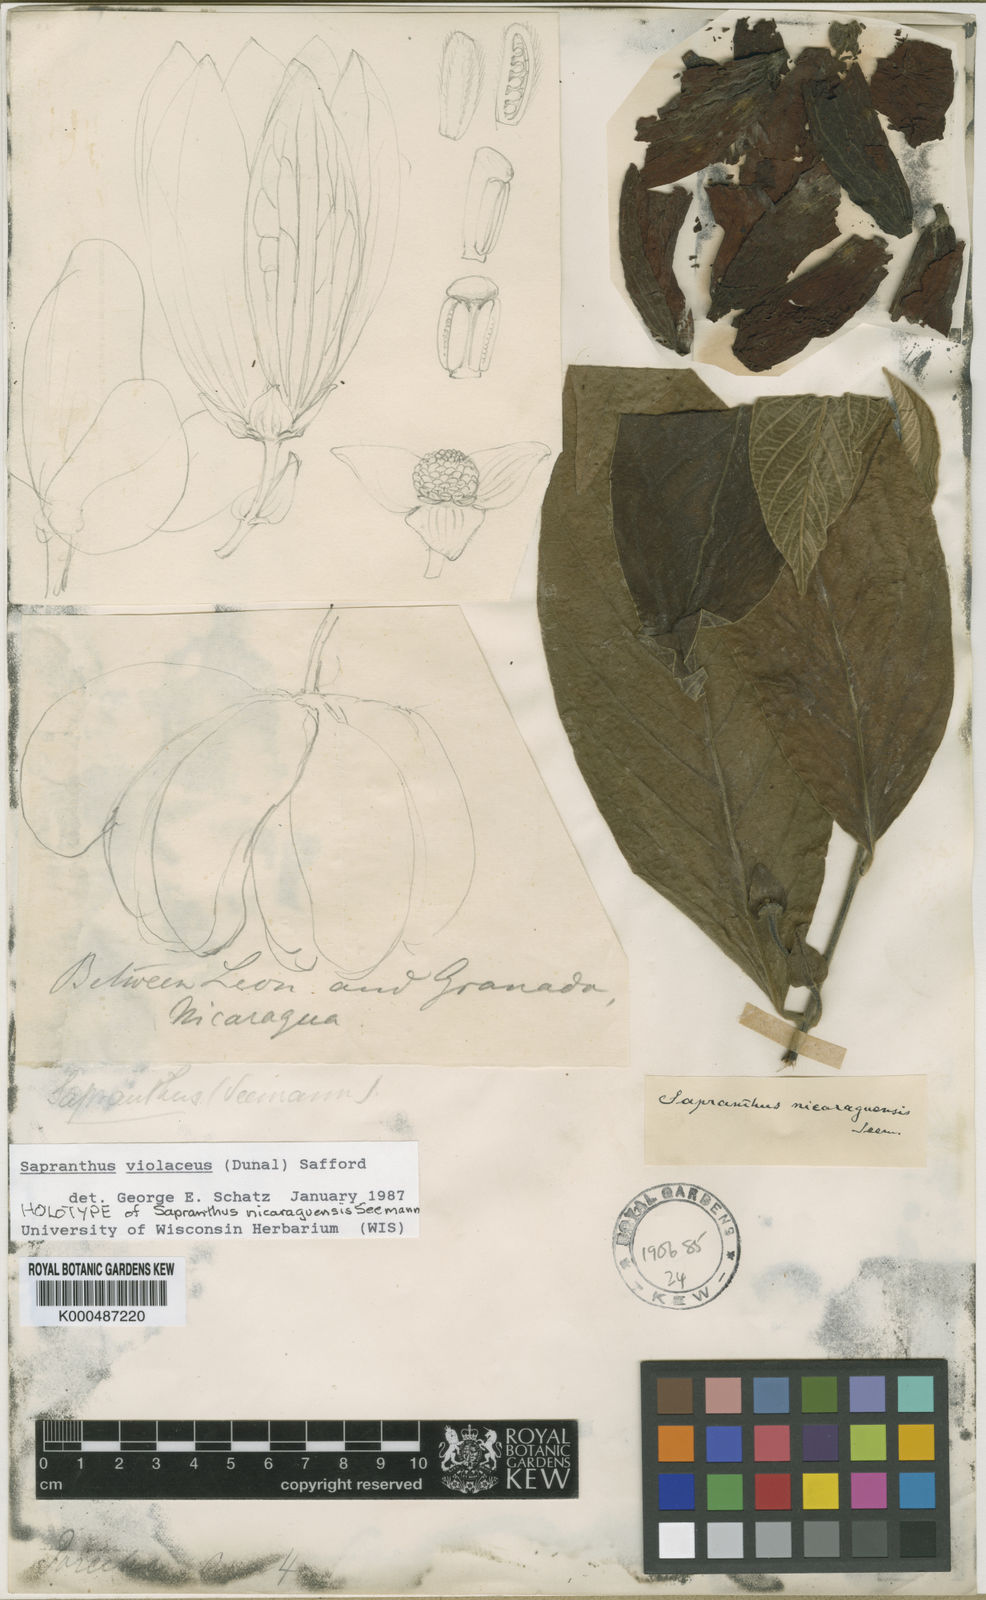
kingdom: Plantae
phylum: Tracheophyta
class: Magnoliopsida
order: Magnoliales
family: Annonaceae
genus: Sapranthus
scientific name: Sapranthus
